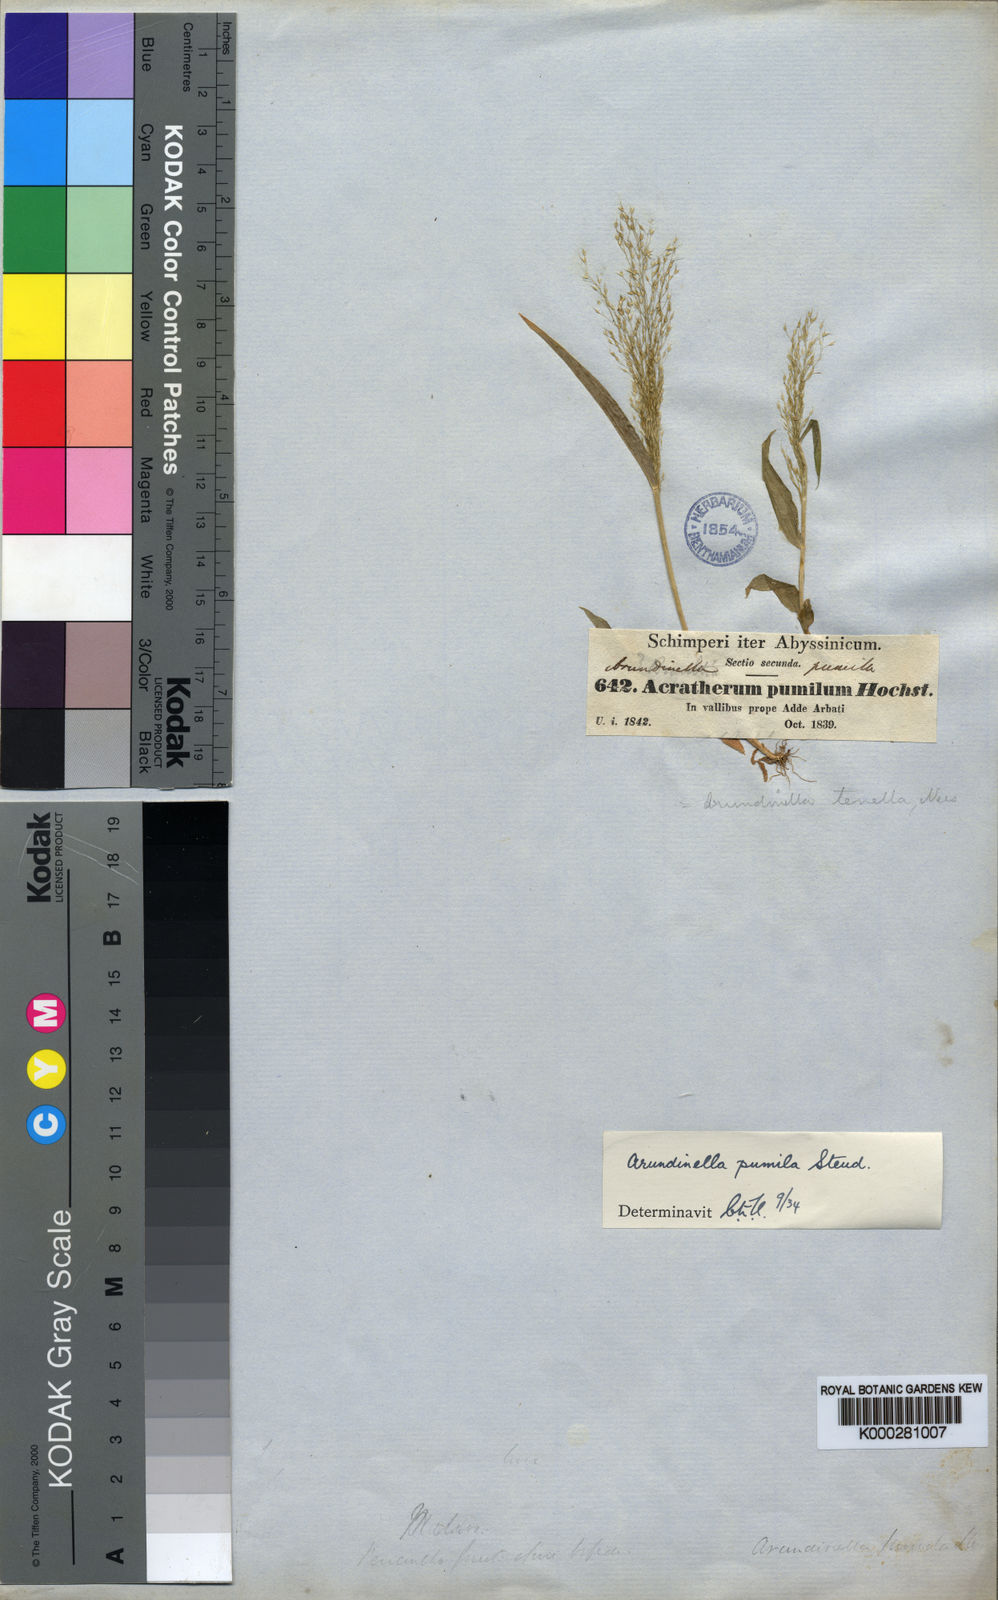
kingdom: Plantae
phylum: Tracheophyta
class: Liliopsida
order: Poales
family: Poaceae
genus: Arundinella
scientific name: Arundinella pumila
